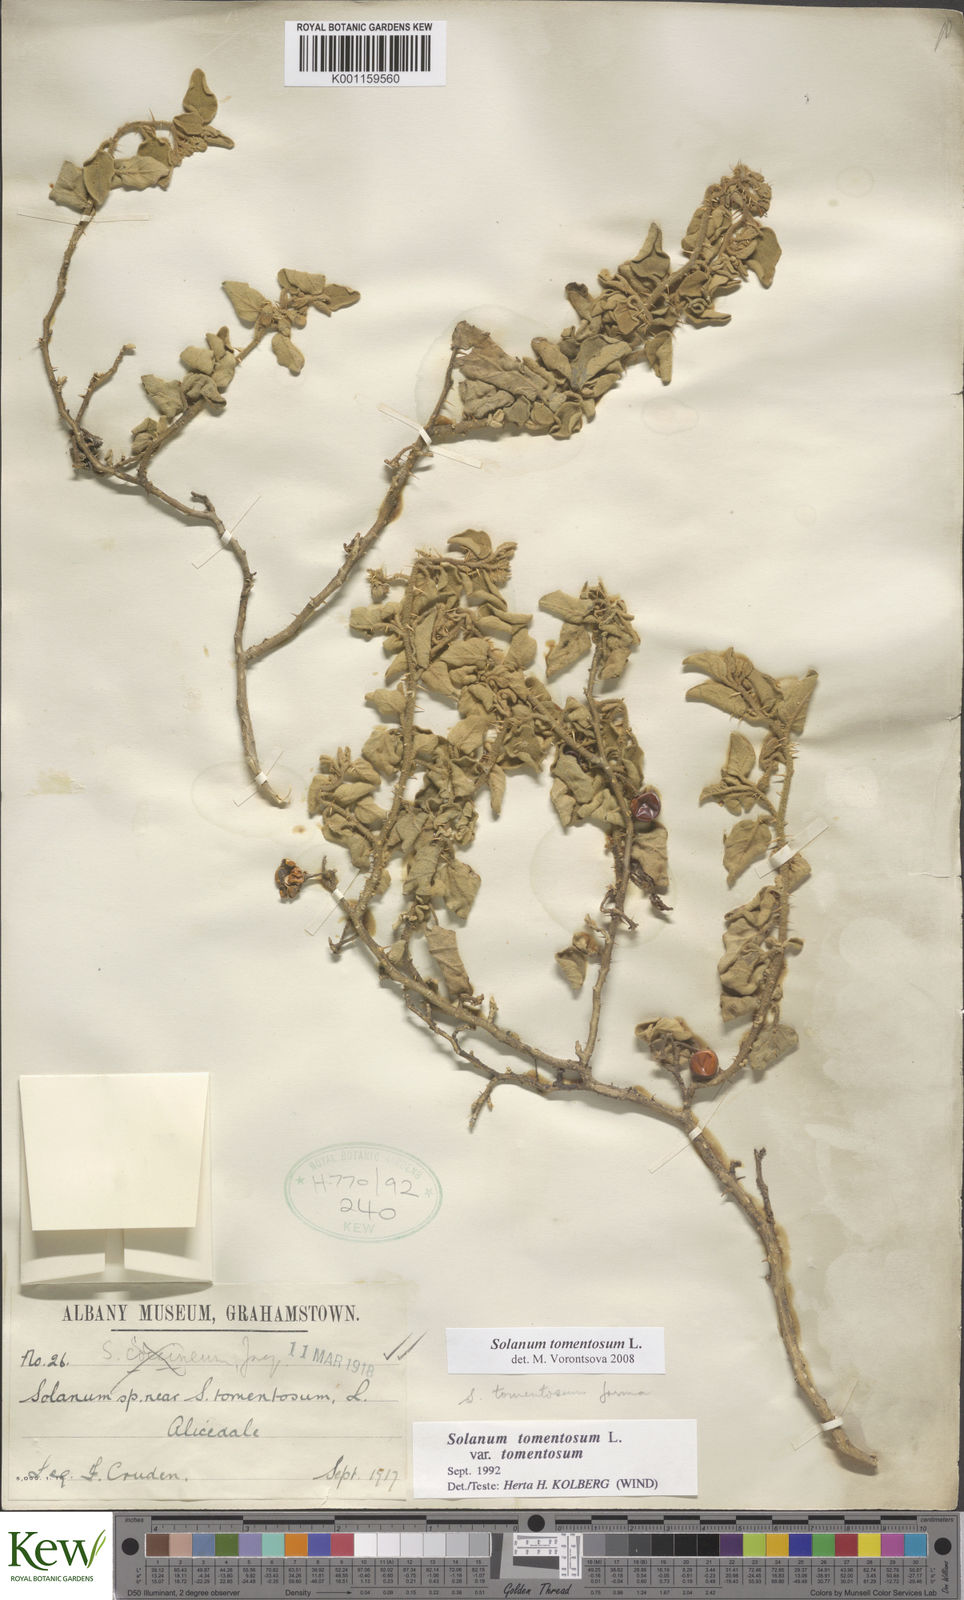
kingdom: Plantae
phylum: Tracheophyta
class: Magnoliopsida
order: Solanales
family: Solanaceae
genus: Solanum
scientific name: Solanum tomentosum
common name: Wild aubergine
